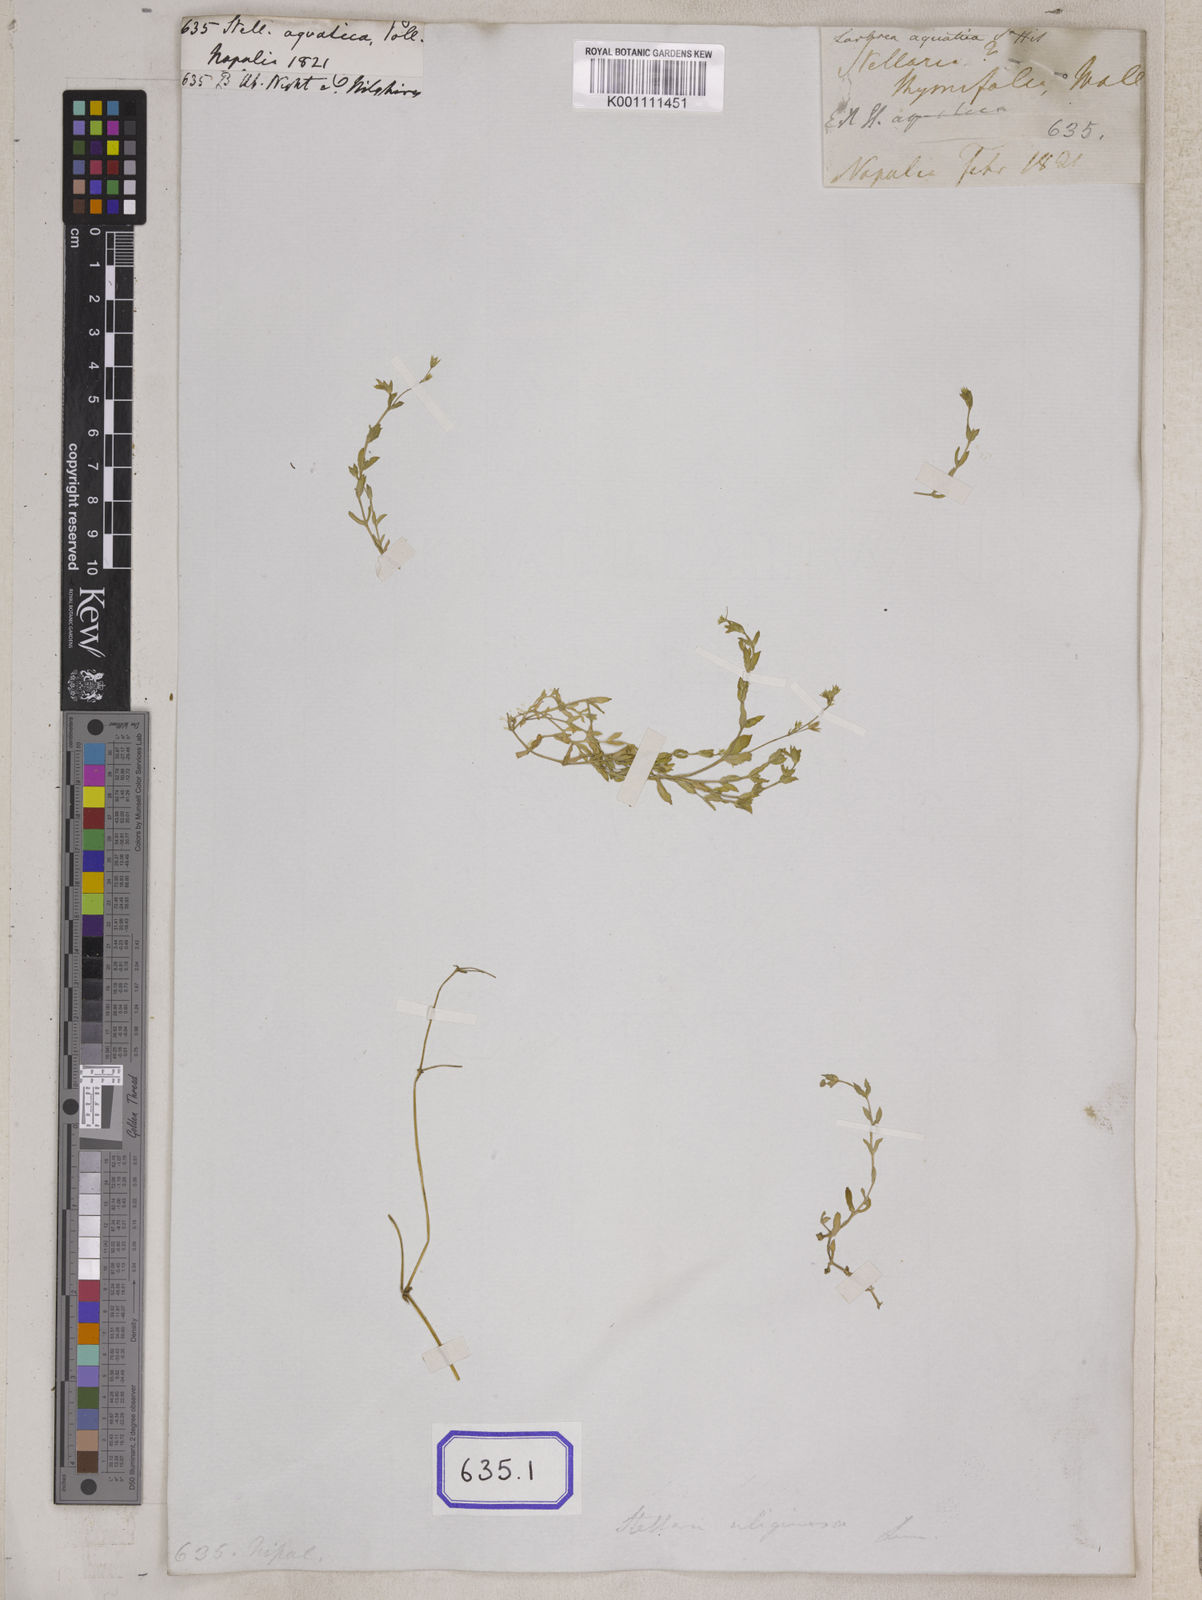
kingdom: Plantae
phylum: Tracheophyta
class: Magnoliopsida
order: Caryophyllales
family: Caryophyllaceae
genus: Stellaria
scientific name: Stellaria alsine
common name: Bog stitchwort
